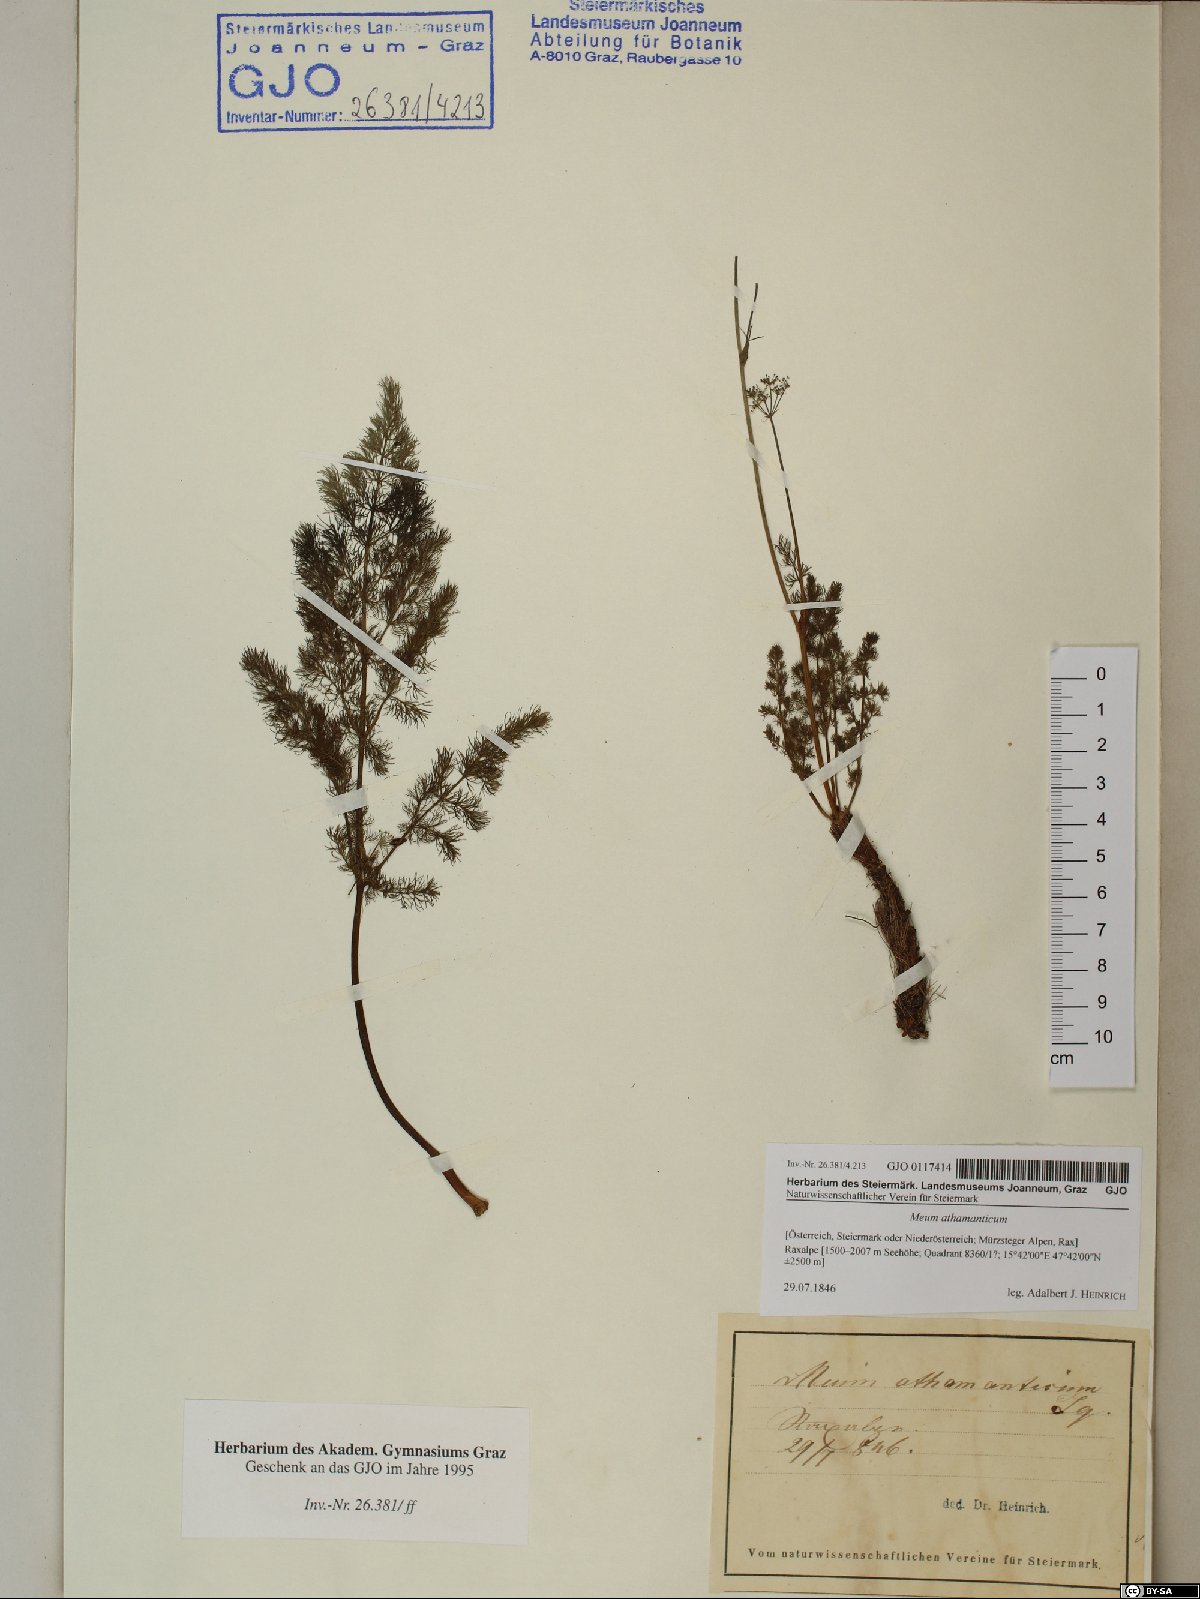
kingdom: Plantae
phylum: Tracheophyta
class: Magnoliopsida
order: Apiales
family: Apiaceae
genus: Meum
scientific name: Meum athamanticum
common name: Spignel
